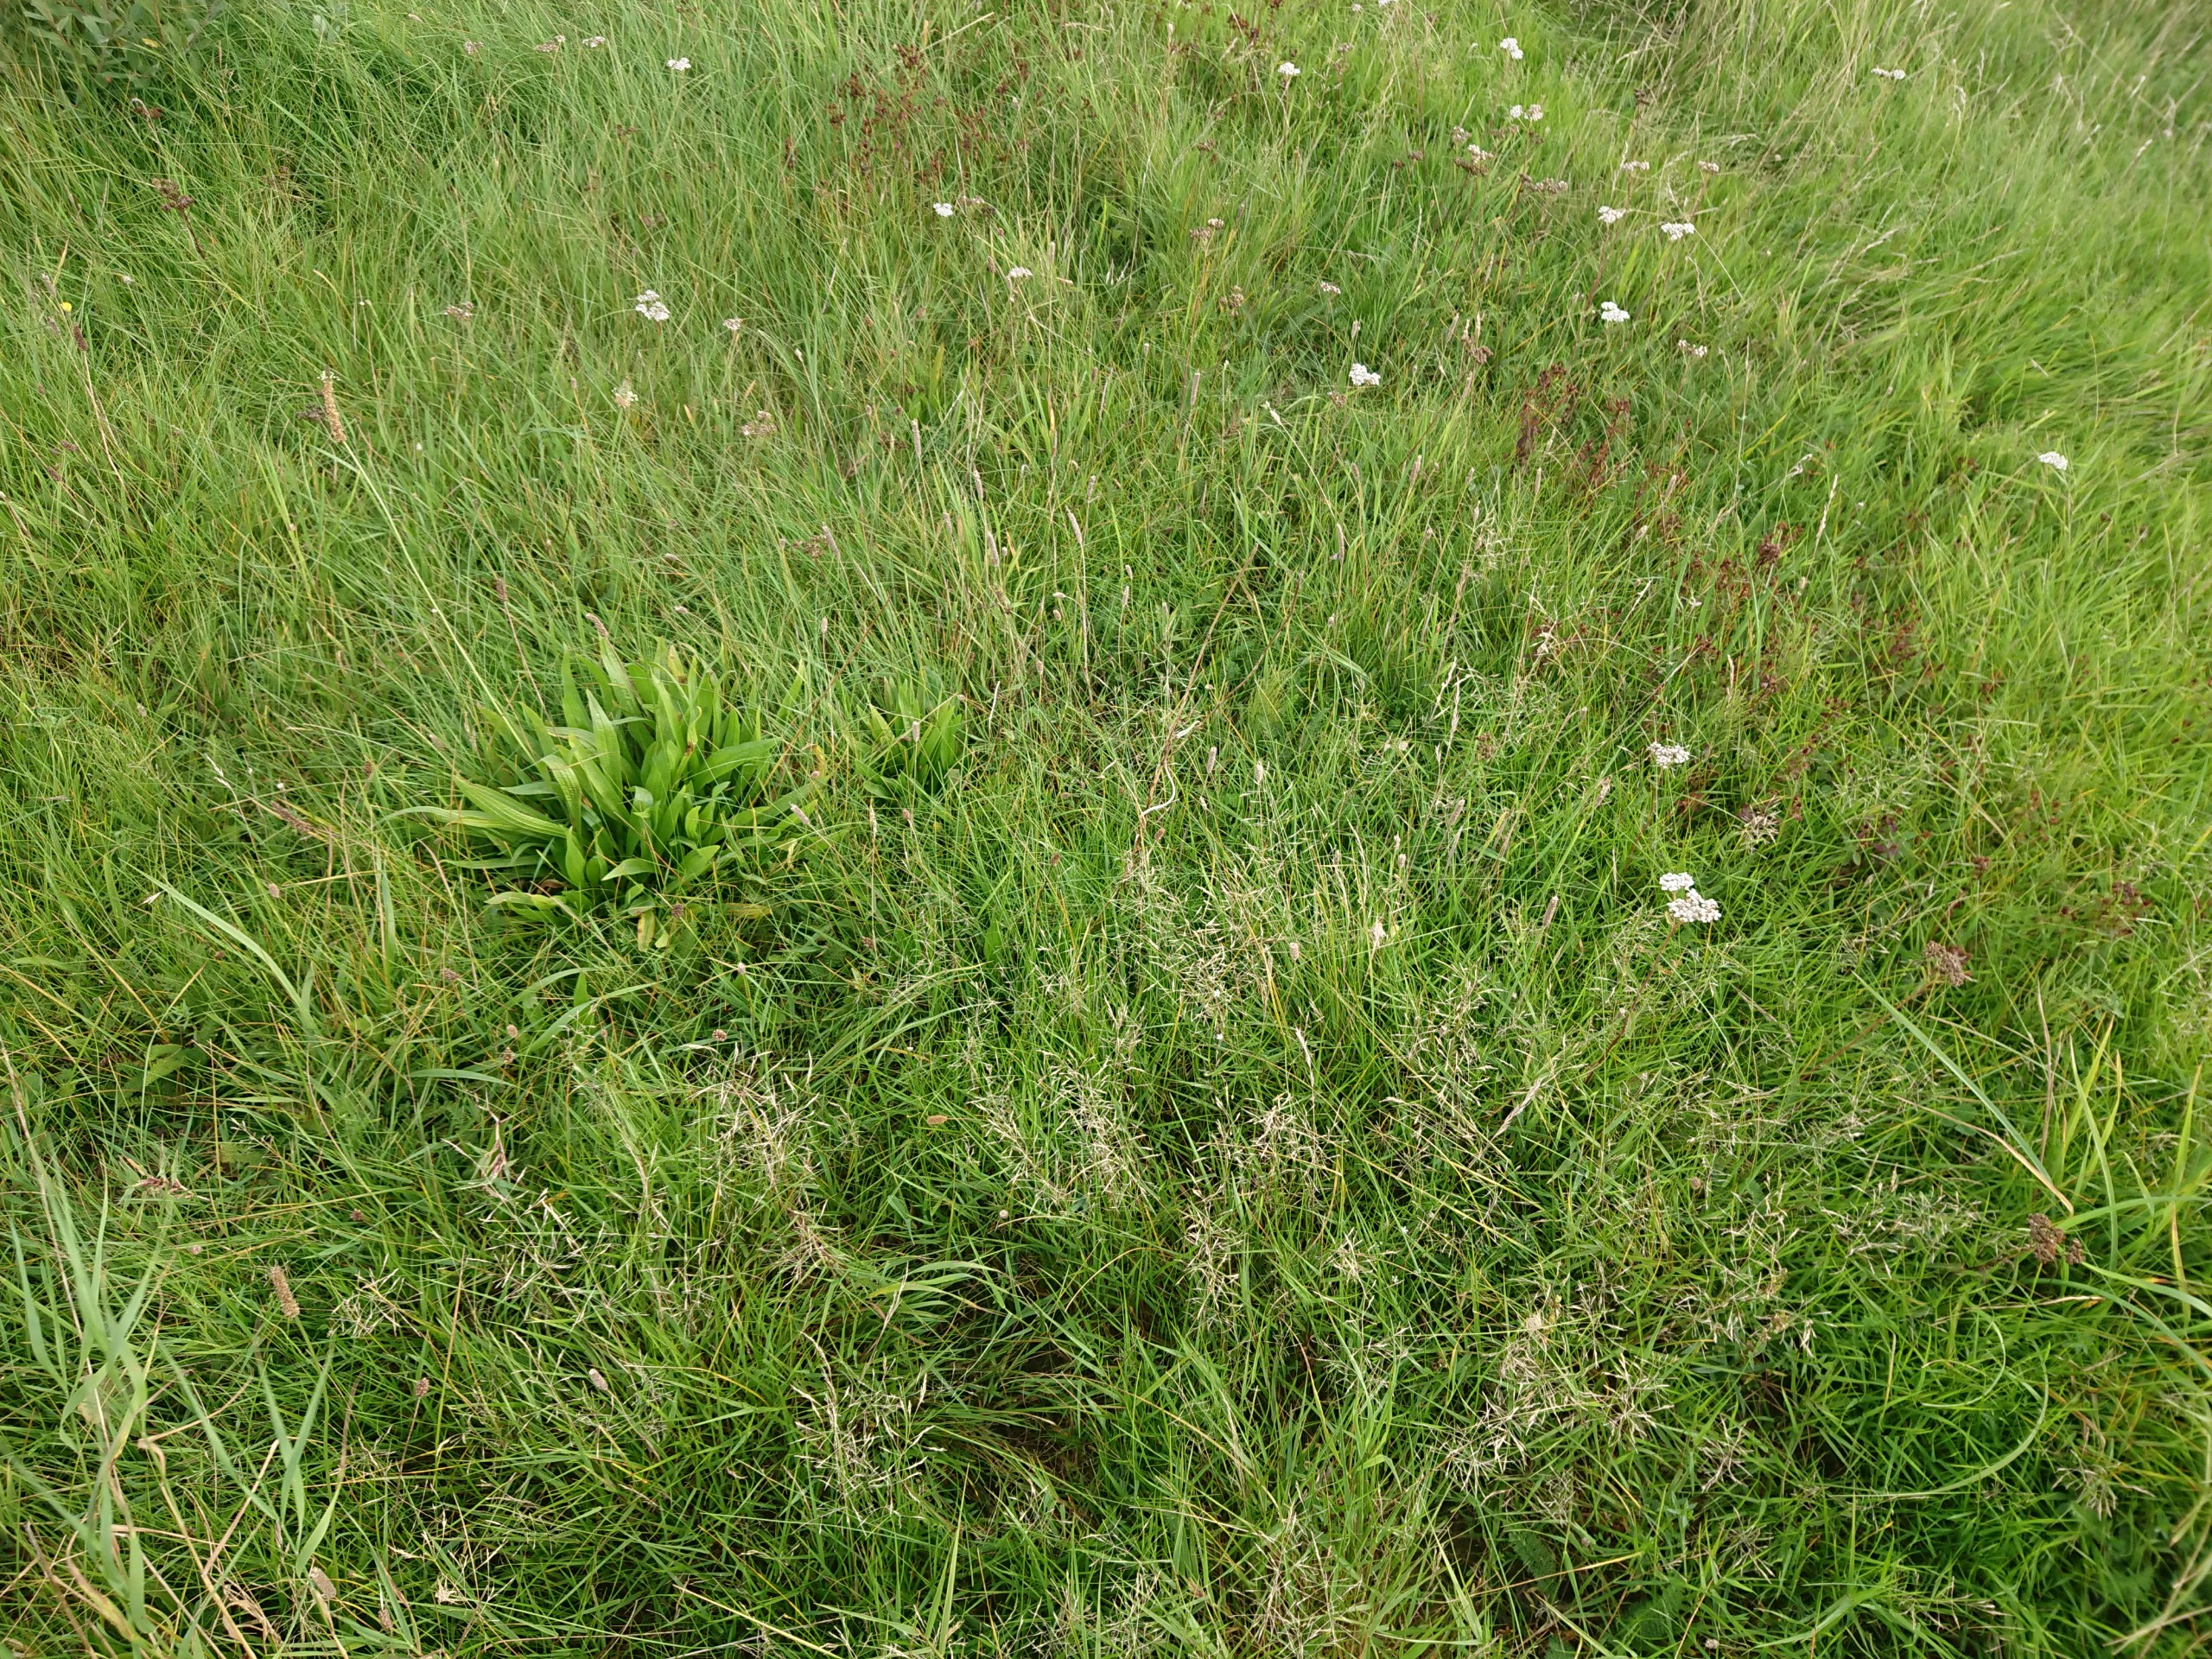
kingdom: Plantae
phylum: Tracheophyta
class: Magnoliopsida
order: Lamiales
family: Plantaginaceae
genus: Plantago
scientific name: Plantago lanceolata
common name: Lancet-vejbred
